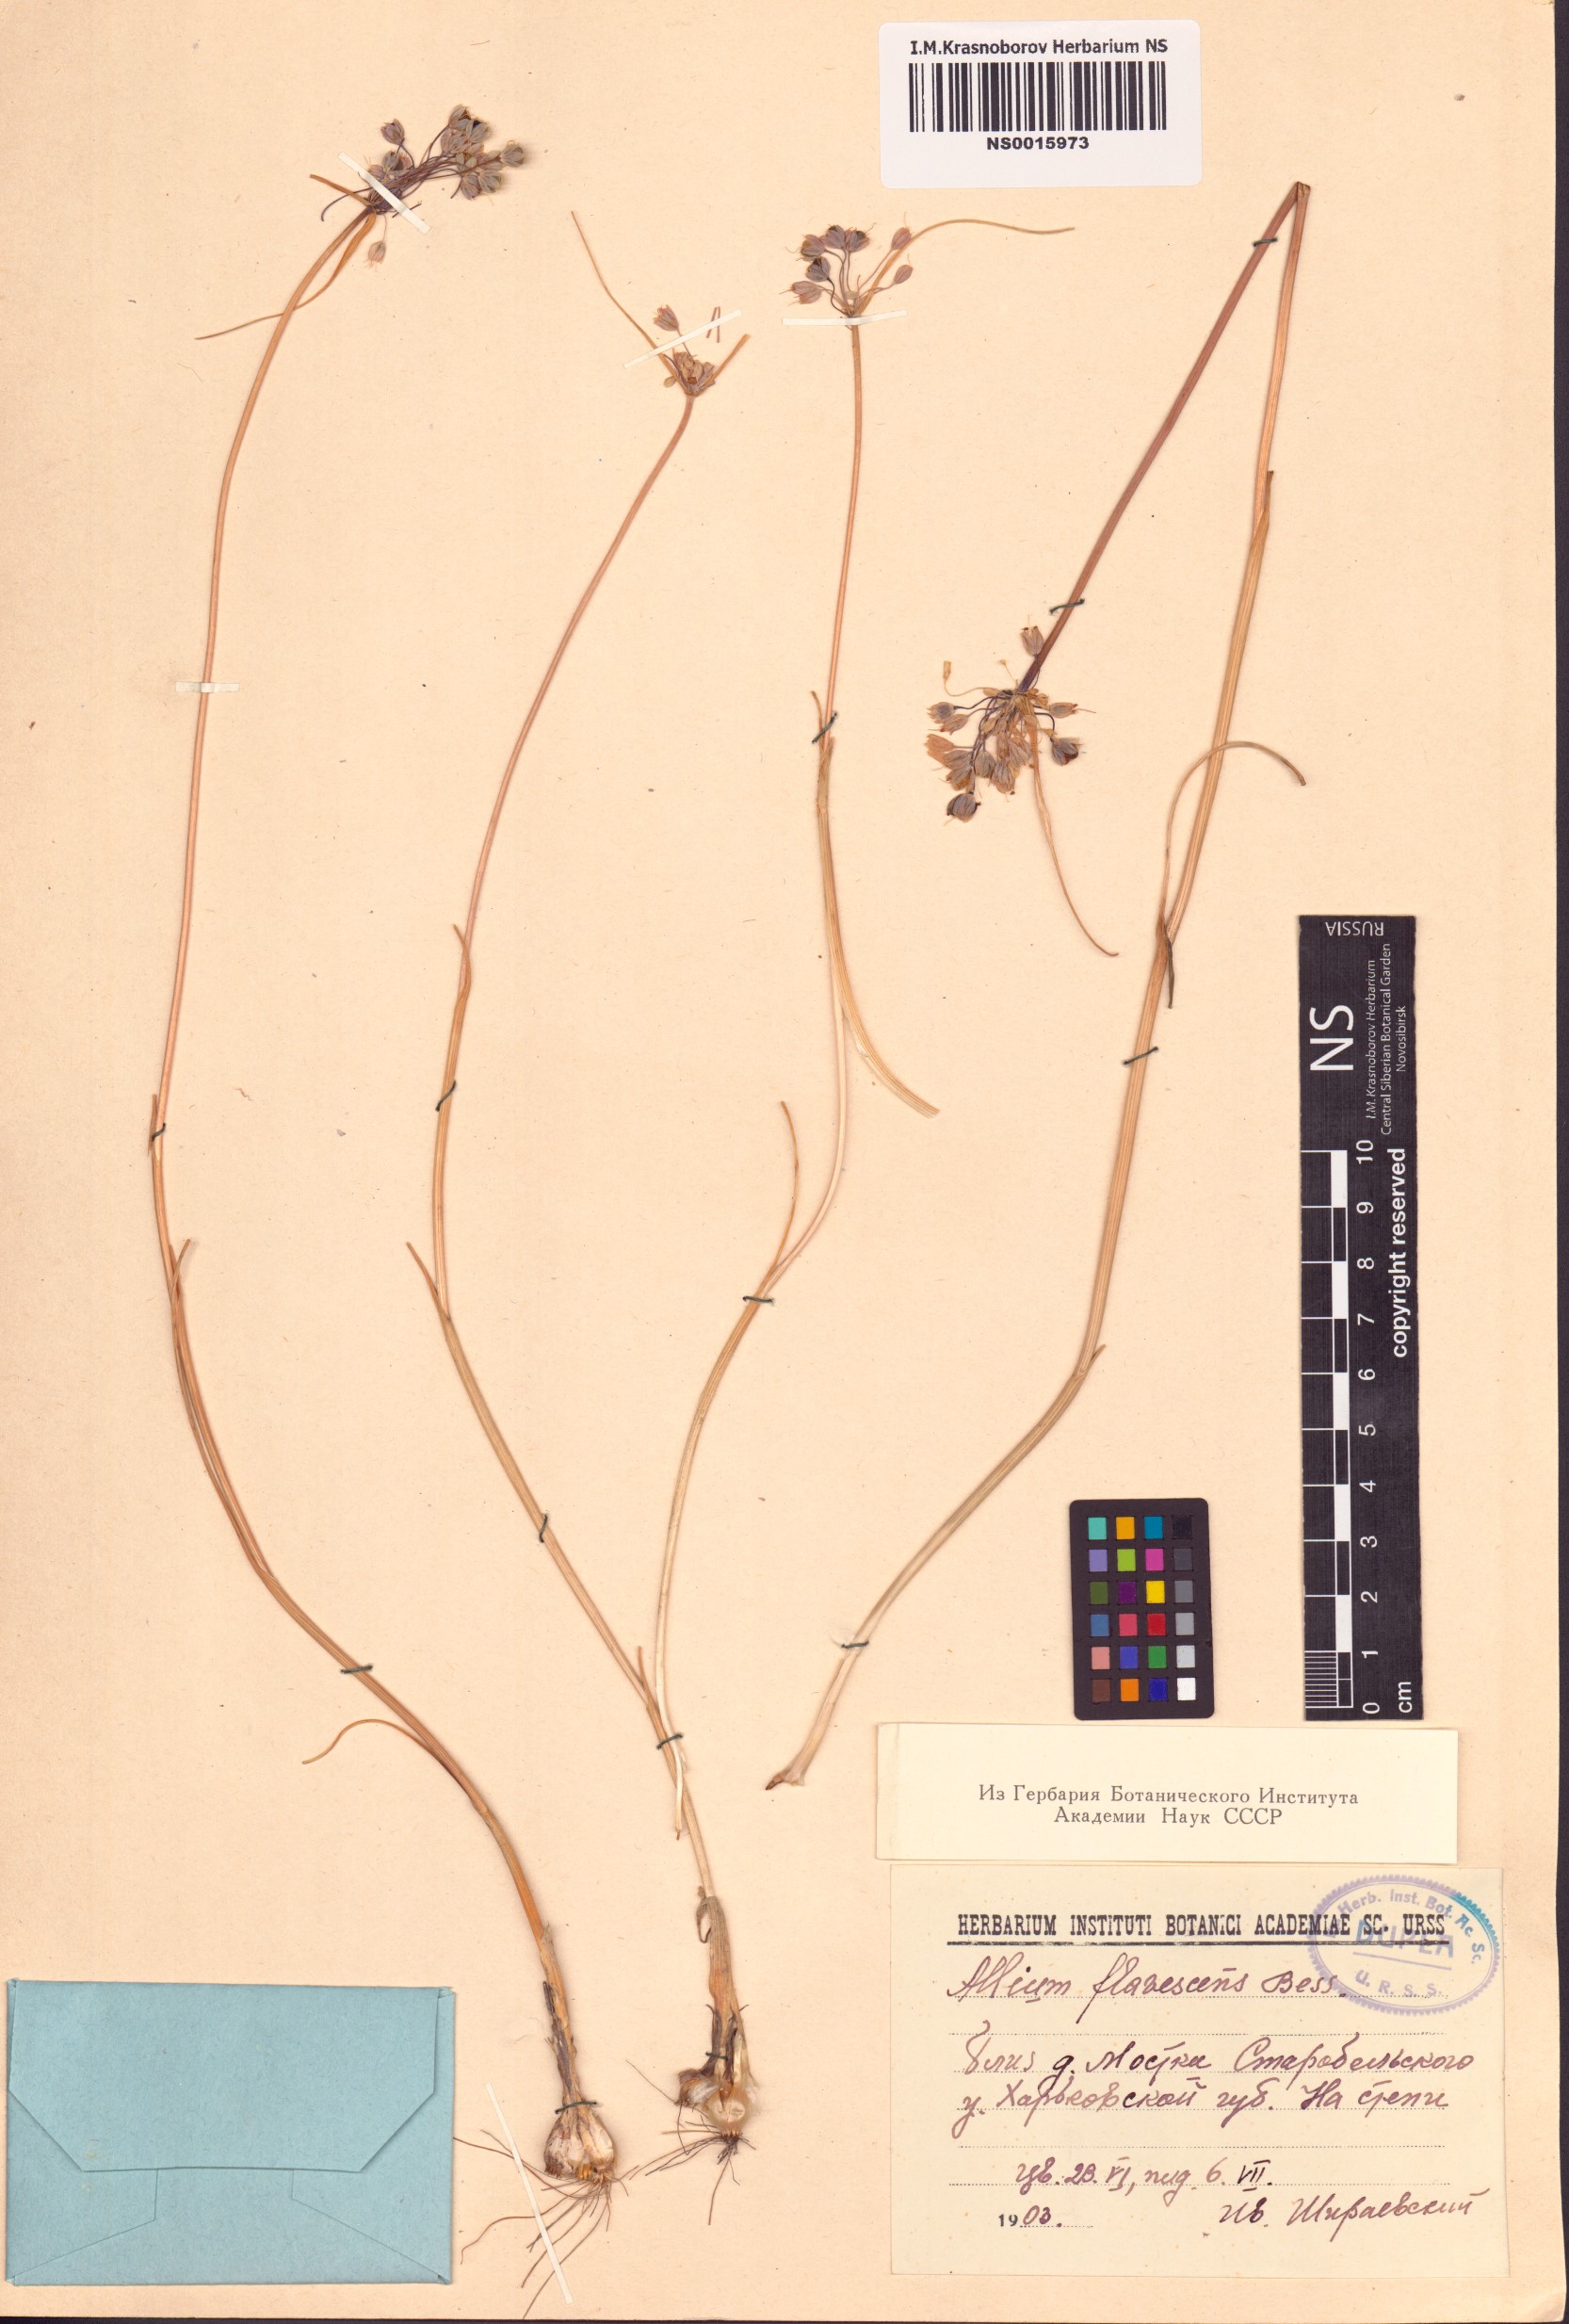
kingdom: Plantae
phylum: Tracheophyta
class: Liliopsida
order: Asparagales
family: Amaryllidaceae
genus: Allium
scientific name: Allium flavescens
